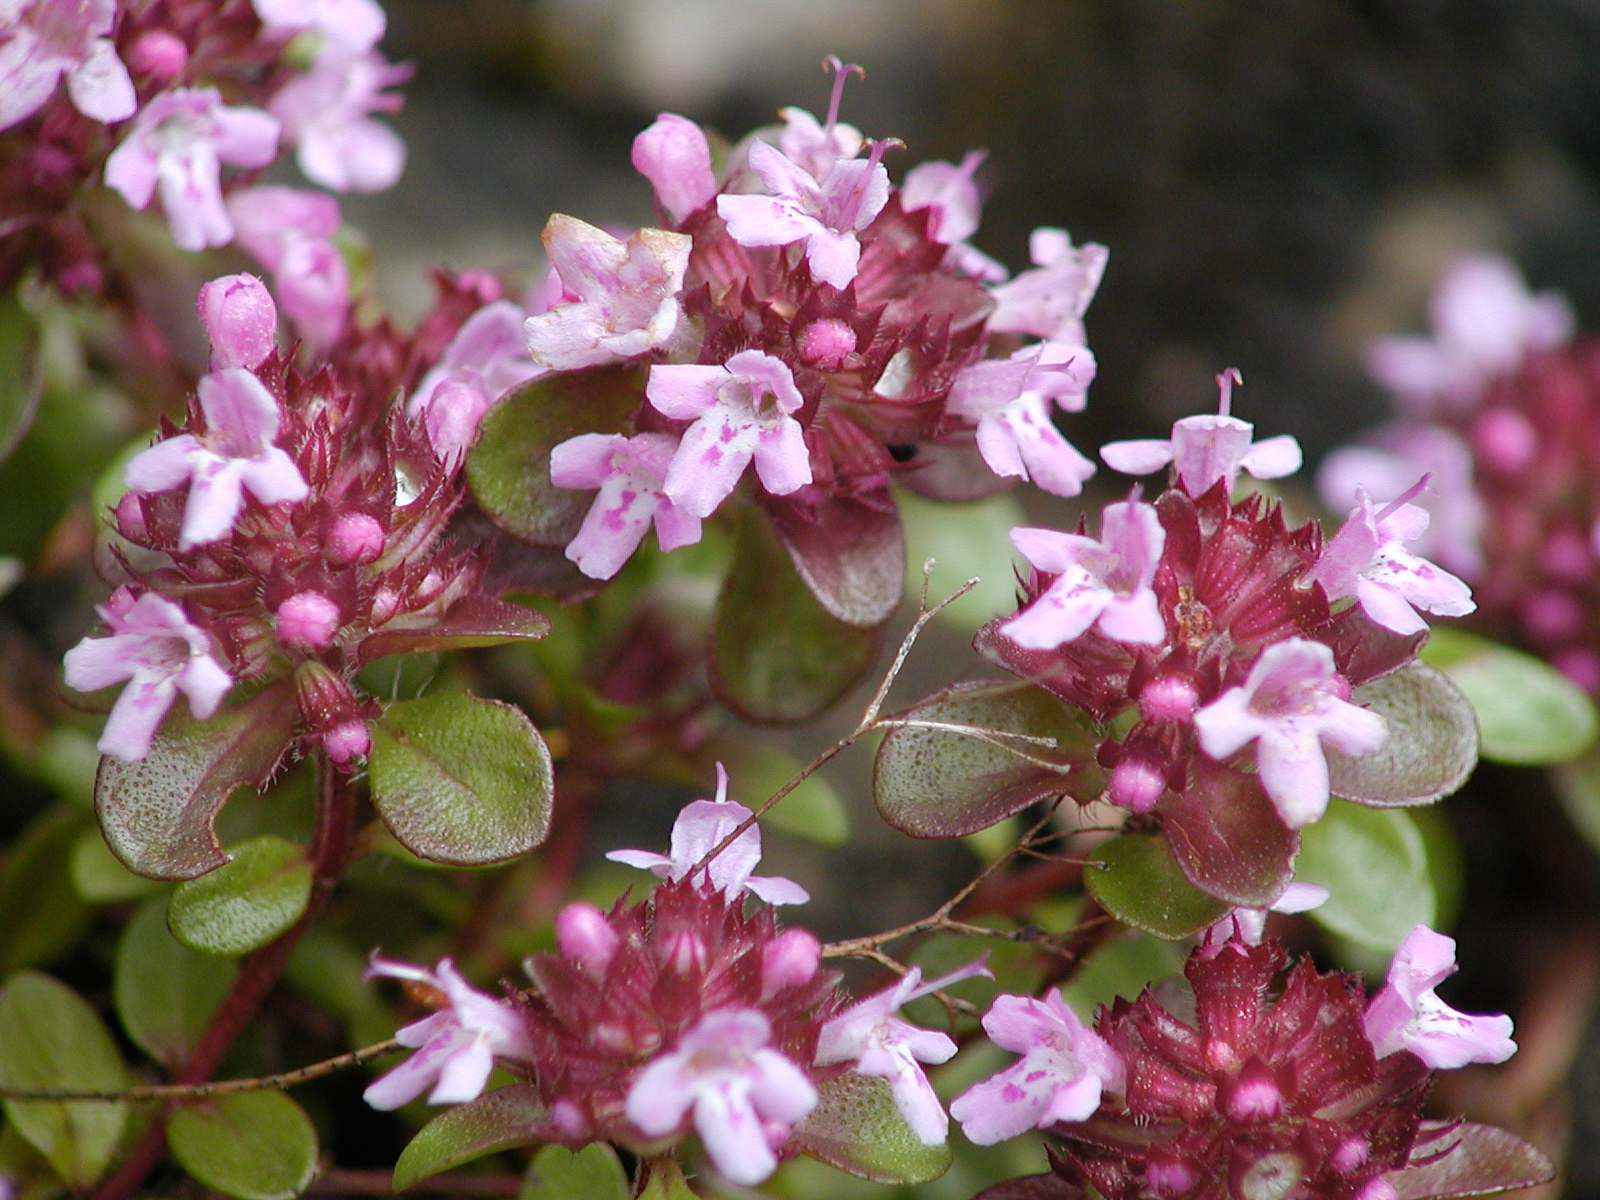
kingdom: Plantae
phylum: Tracheophyta
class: Magnoliopsida
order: Lamiales
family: Lamiaceae
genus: Thymus
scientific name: Thymus praecox
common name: Wild thyme
